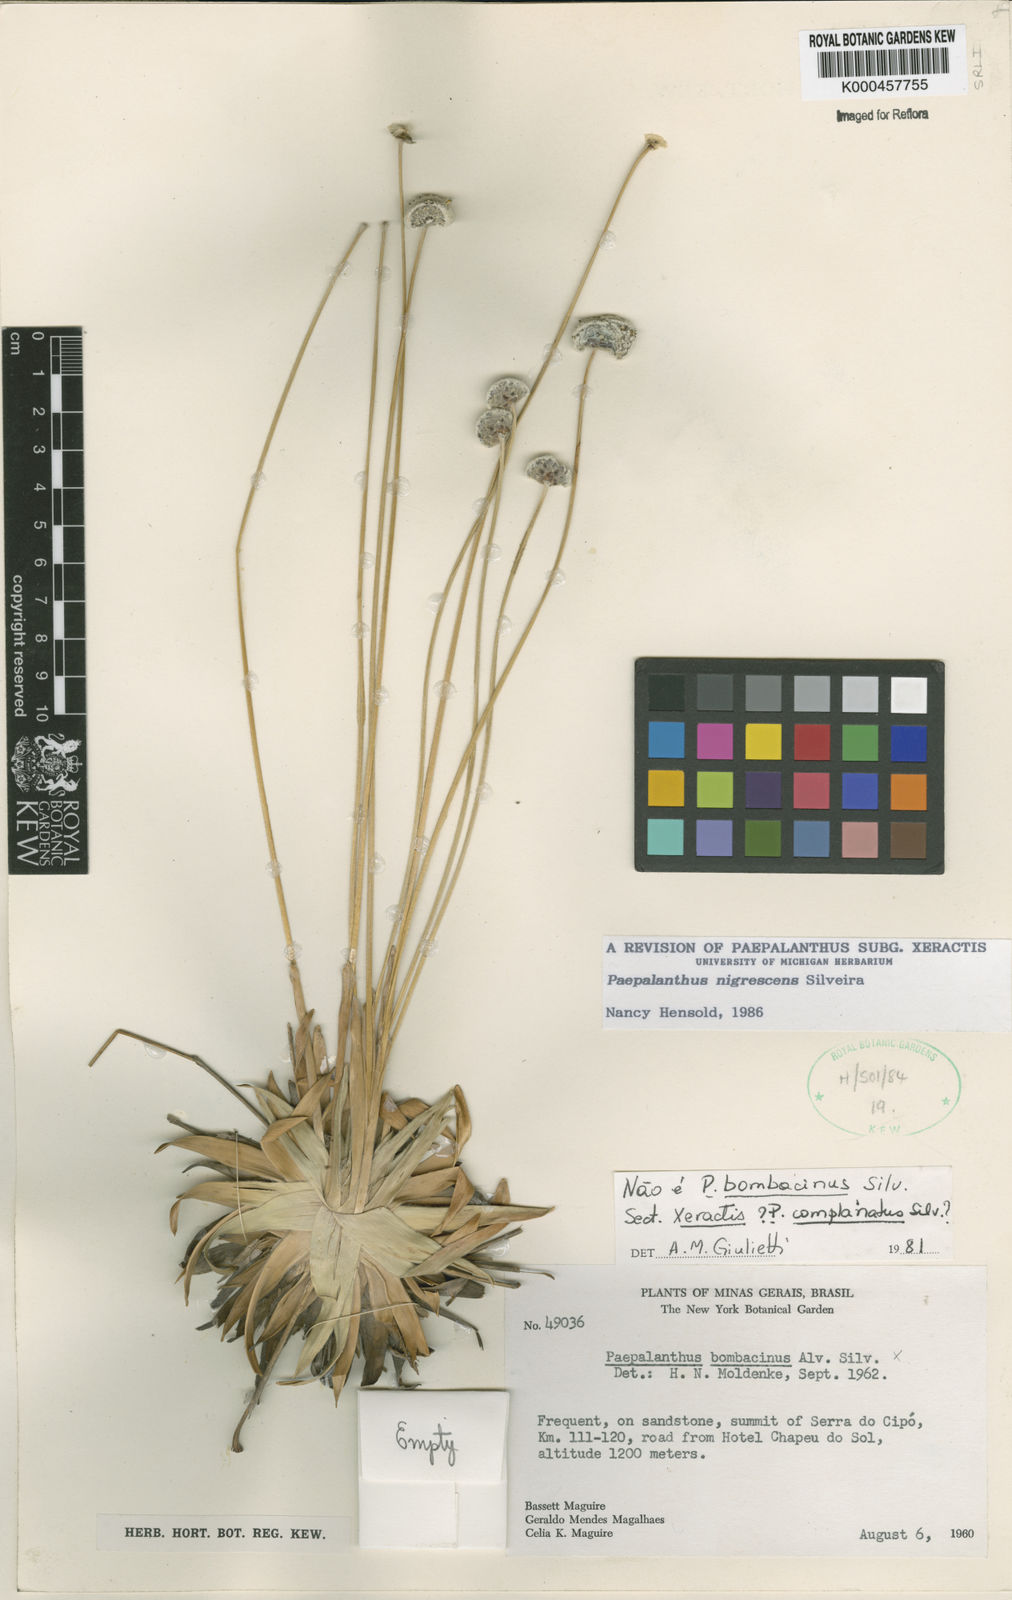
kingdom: Plantae
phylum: Tracheophyta
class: Liliopsida
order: Poales
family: Eriocaulaceae
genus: Paepalanthus
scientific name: Paepalanthus nigrescens
